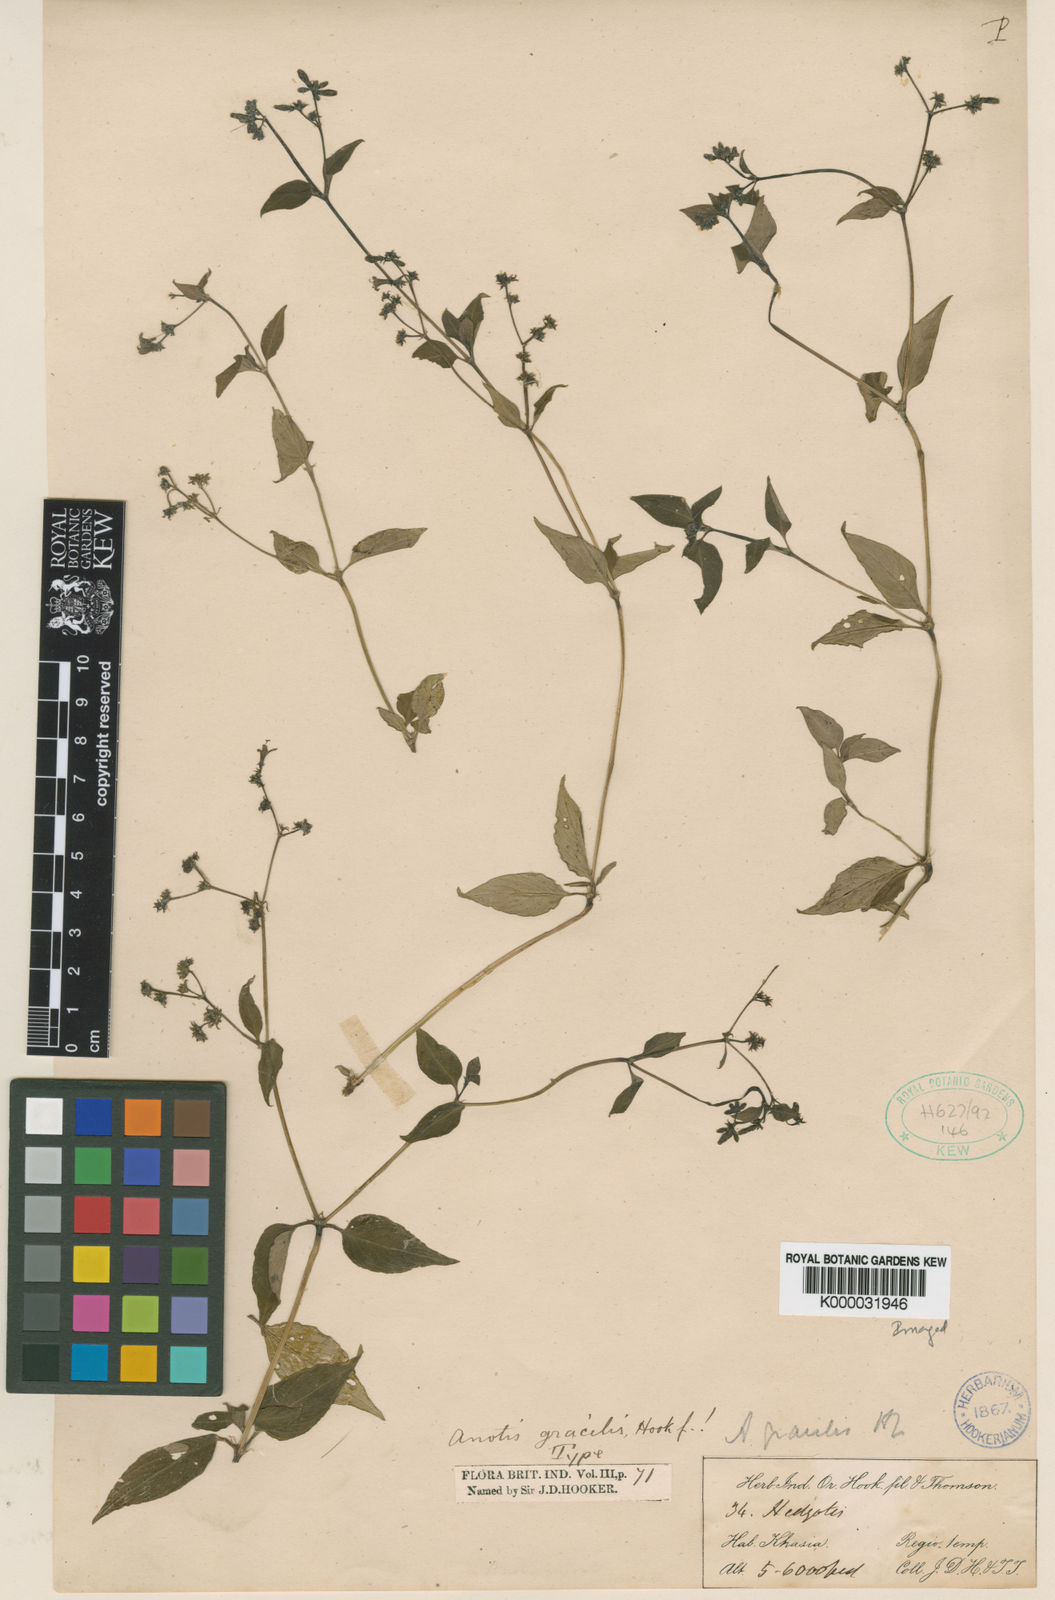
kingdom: Plantae
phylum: Tracheophyta
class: Magnoliopsida
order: Gentianales
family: Rubiaceae
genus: Neanotis
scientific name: Neanotis ingrata
